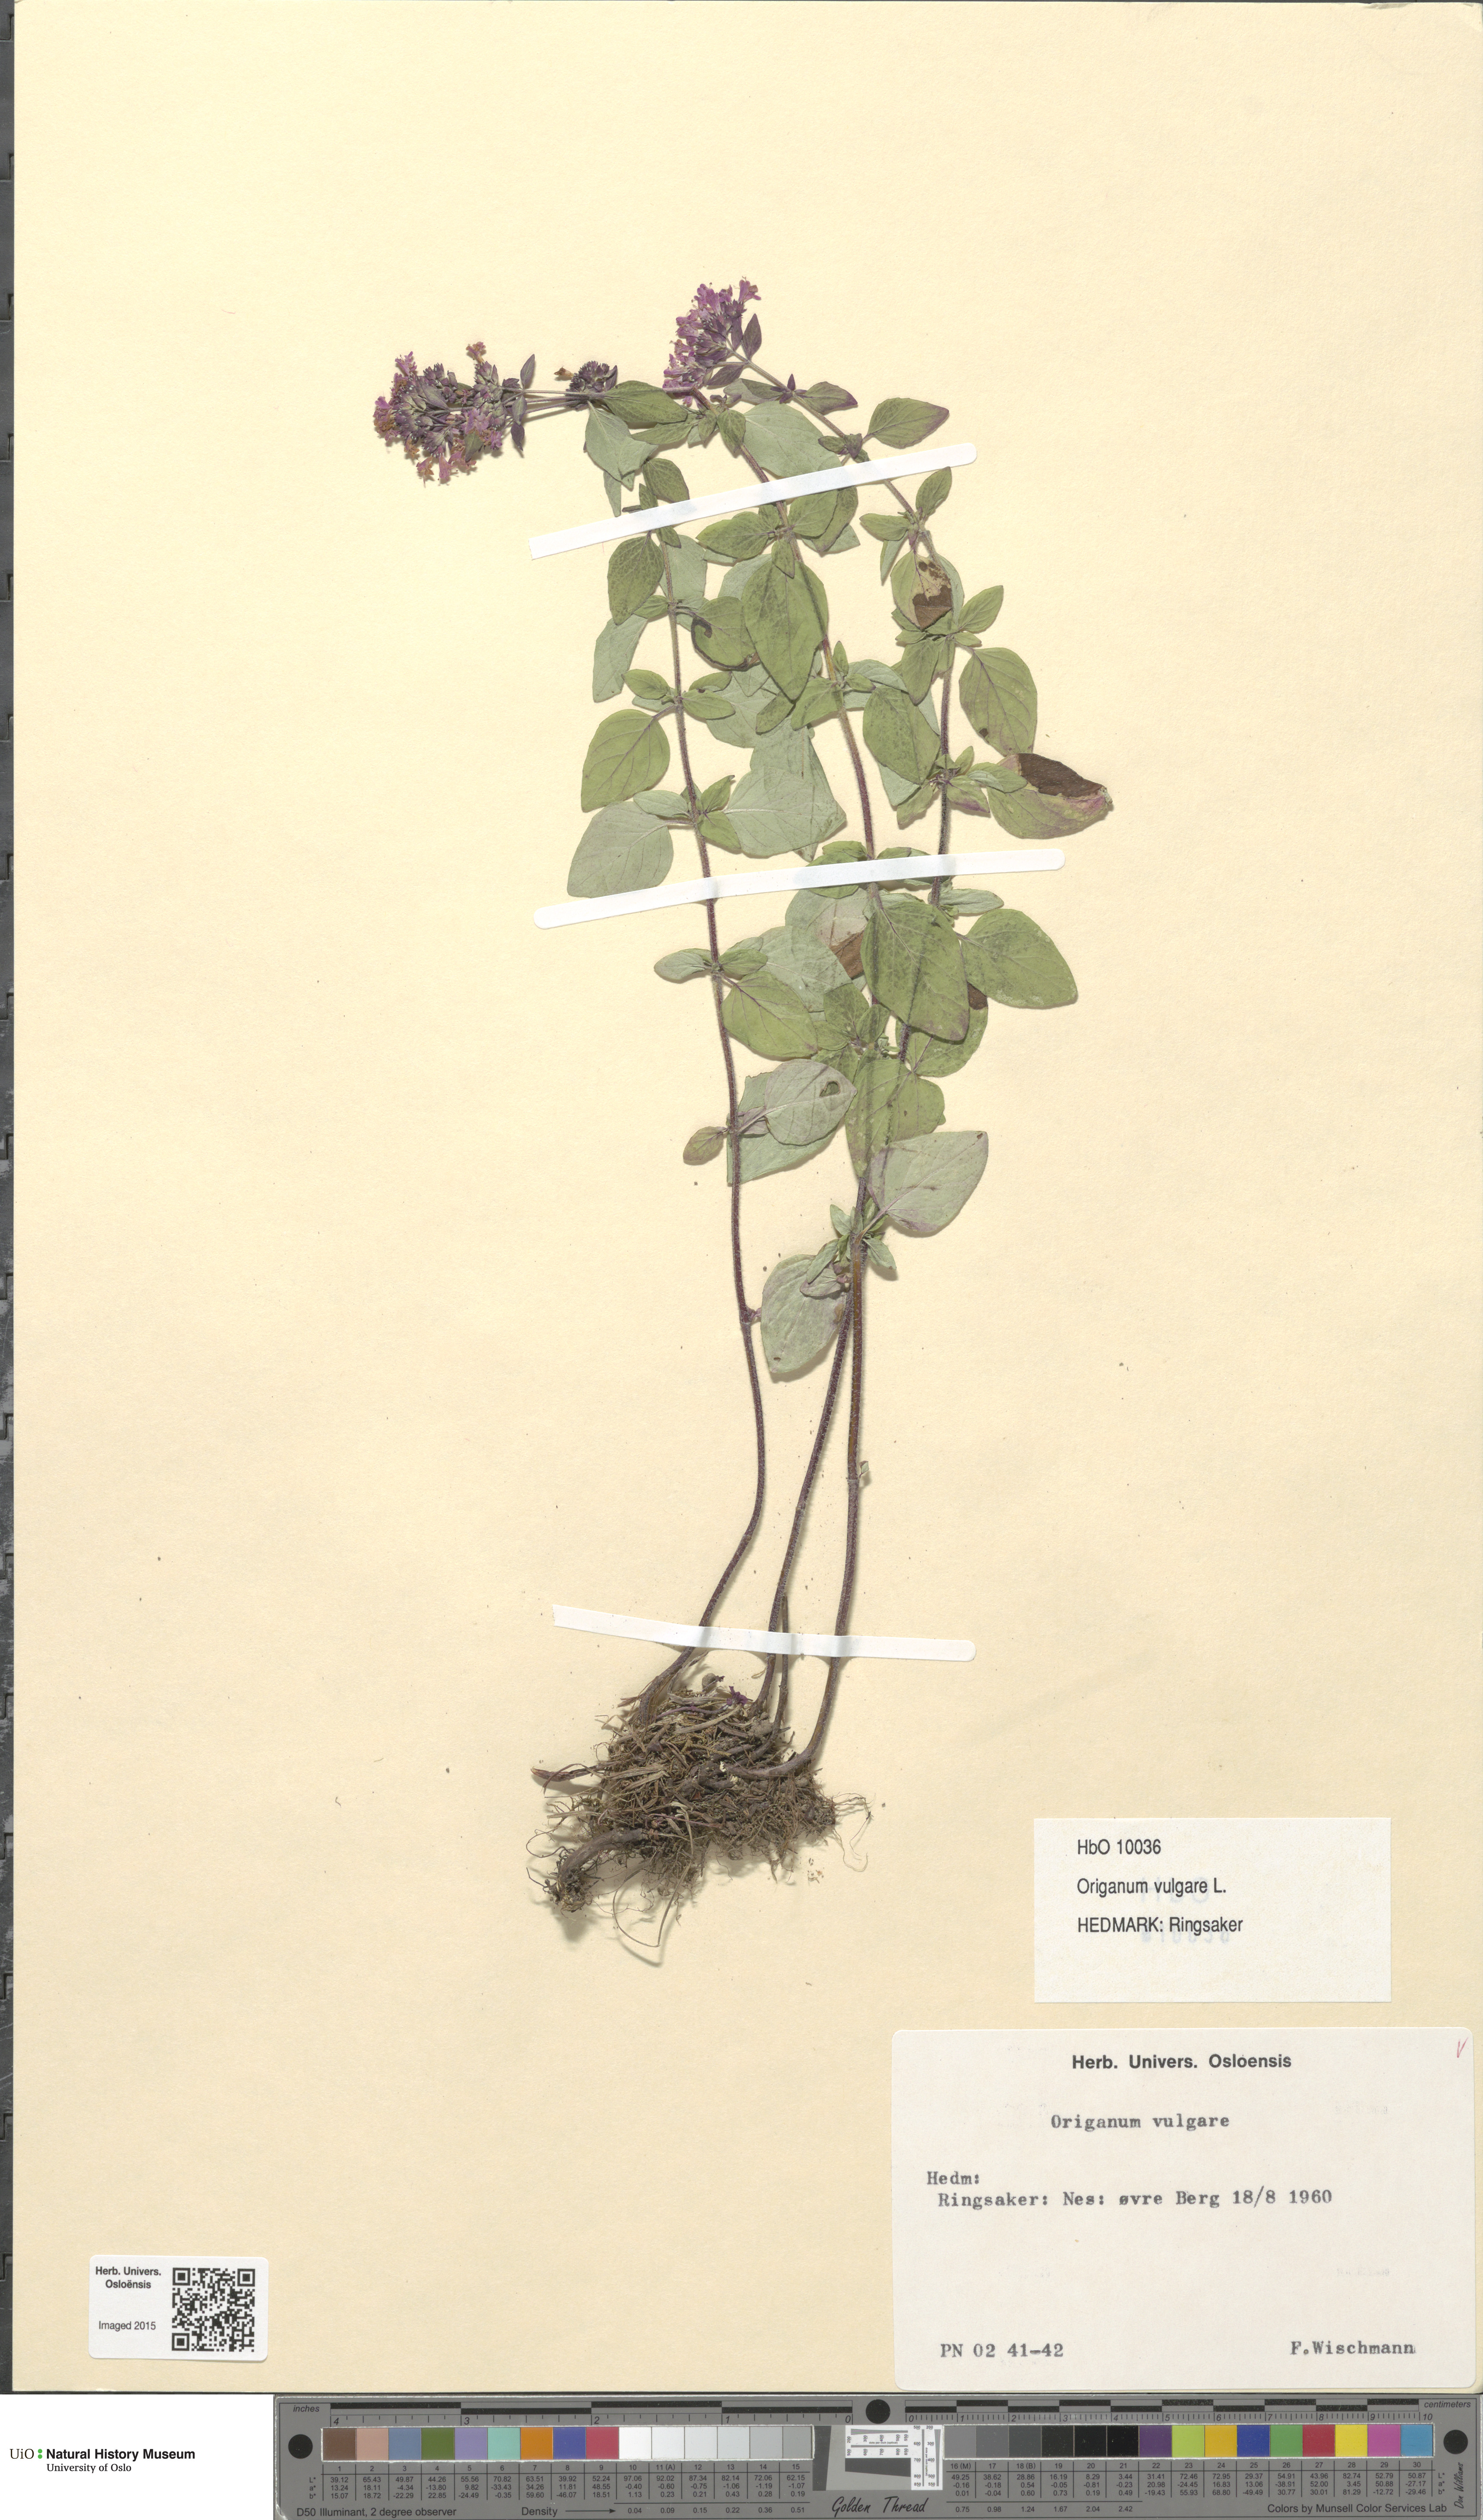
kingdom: Plantae
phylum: Tracheophyta
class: Magnoliopsida
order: Lamiales
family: Lamiaceae
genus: Origanum
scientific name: Origanum vulgare
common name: Wild marjoram
